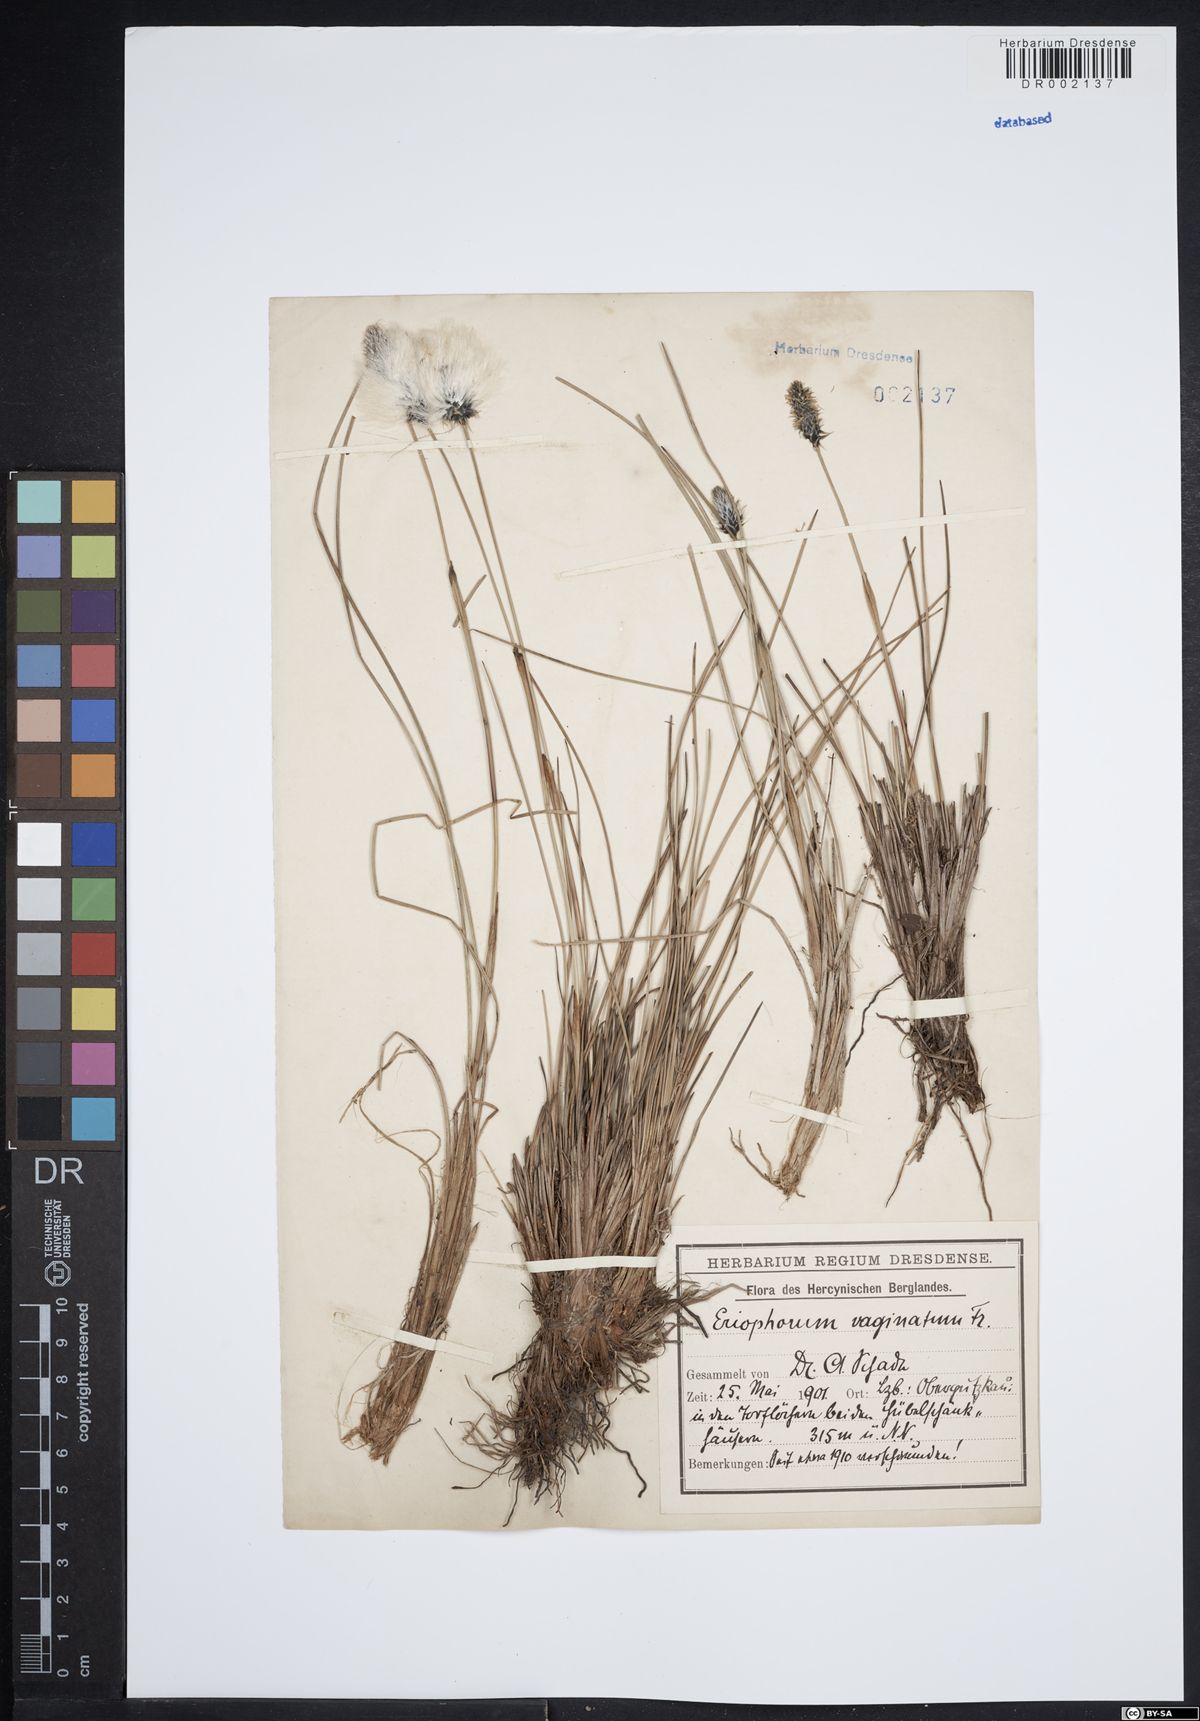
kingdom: Plantae
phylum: Tracheophyta
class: Liliopsida
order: Poales
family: Cyperaceae
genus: Eriophorum
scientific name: Eriophorum vaginatum
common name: Hare's-tail cottongrass
